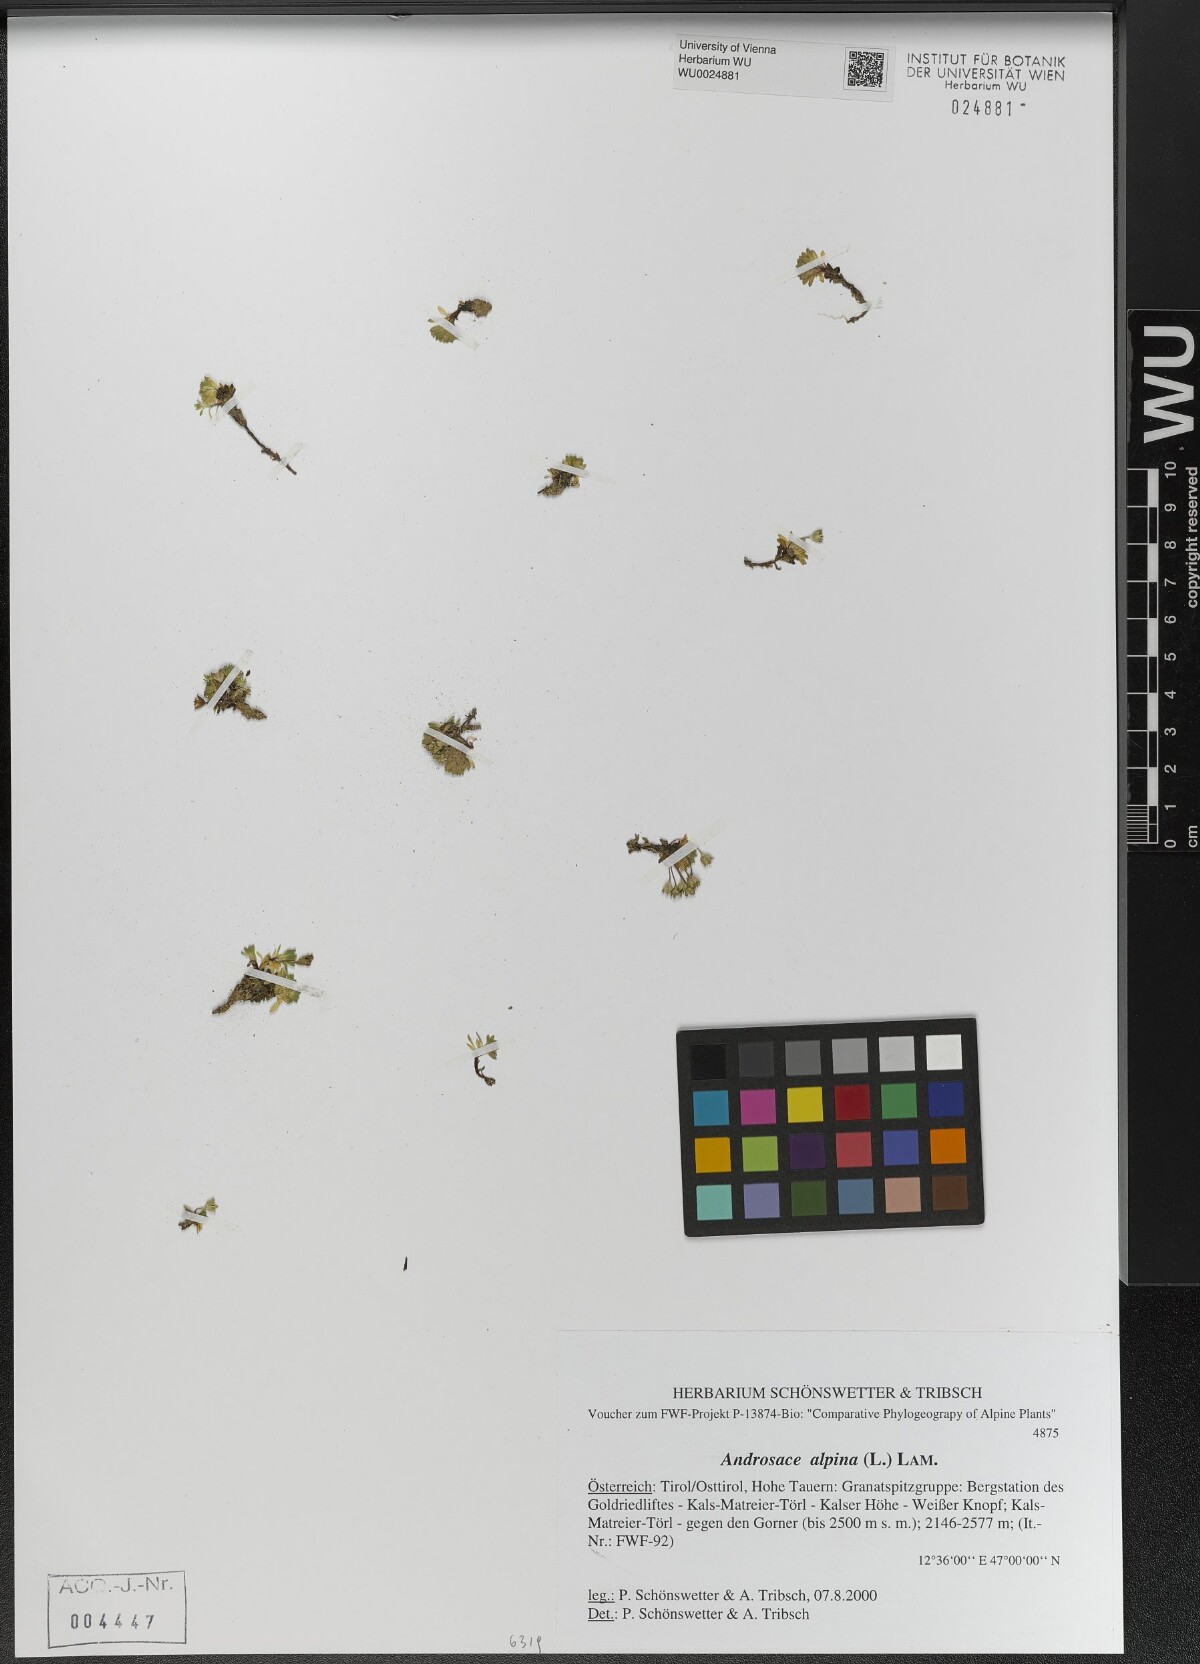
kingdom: Plantae
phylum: Tracheophyta
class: Magnoliopsida
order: Ericales
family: Primulaceae
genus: Androsace
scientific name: Androsace alpina
